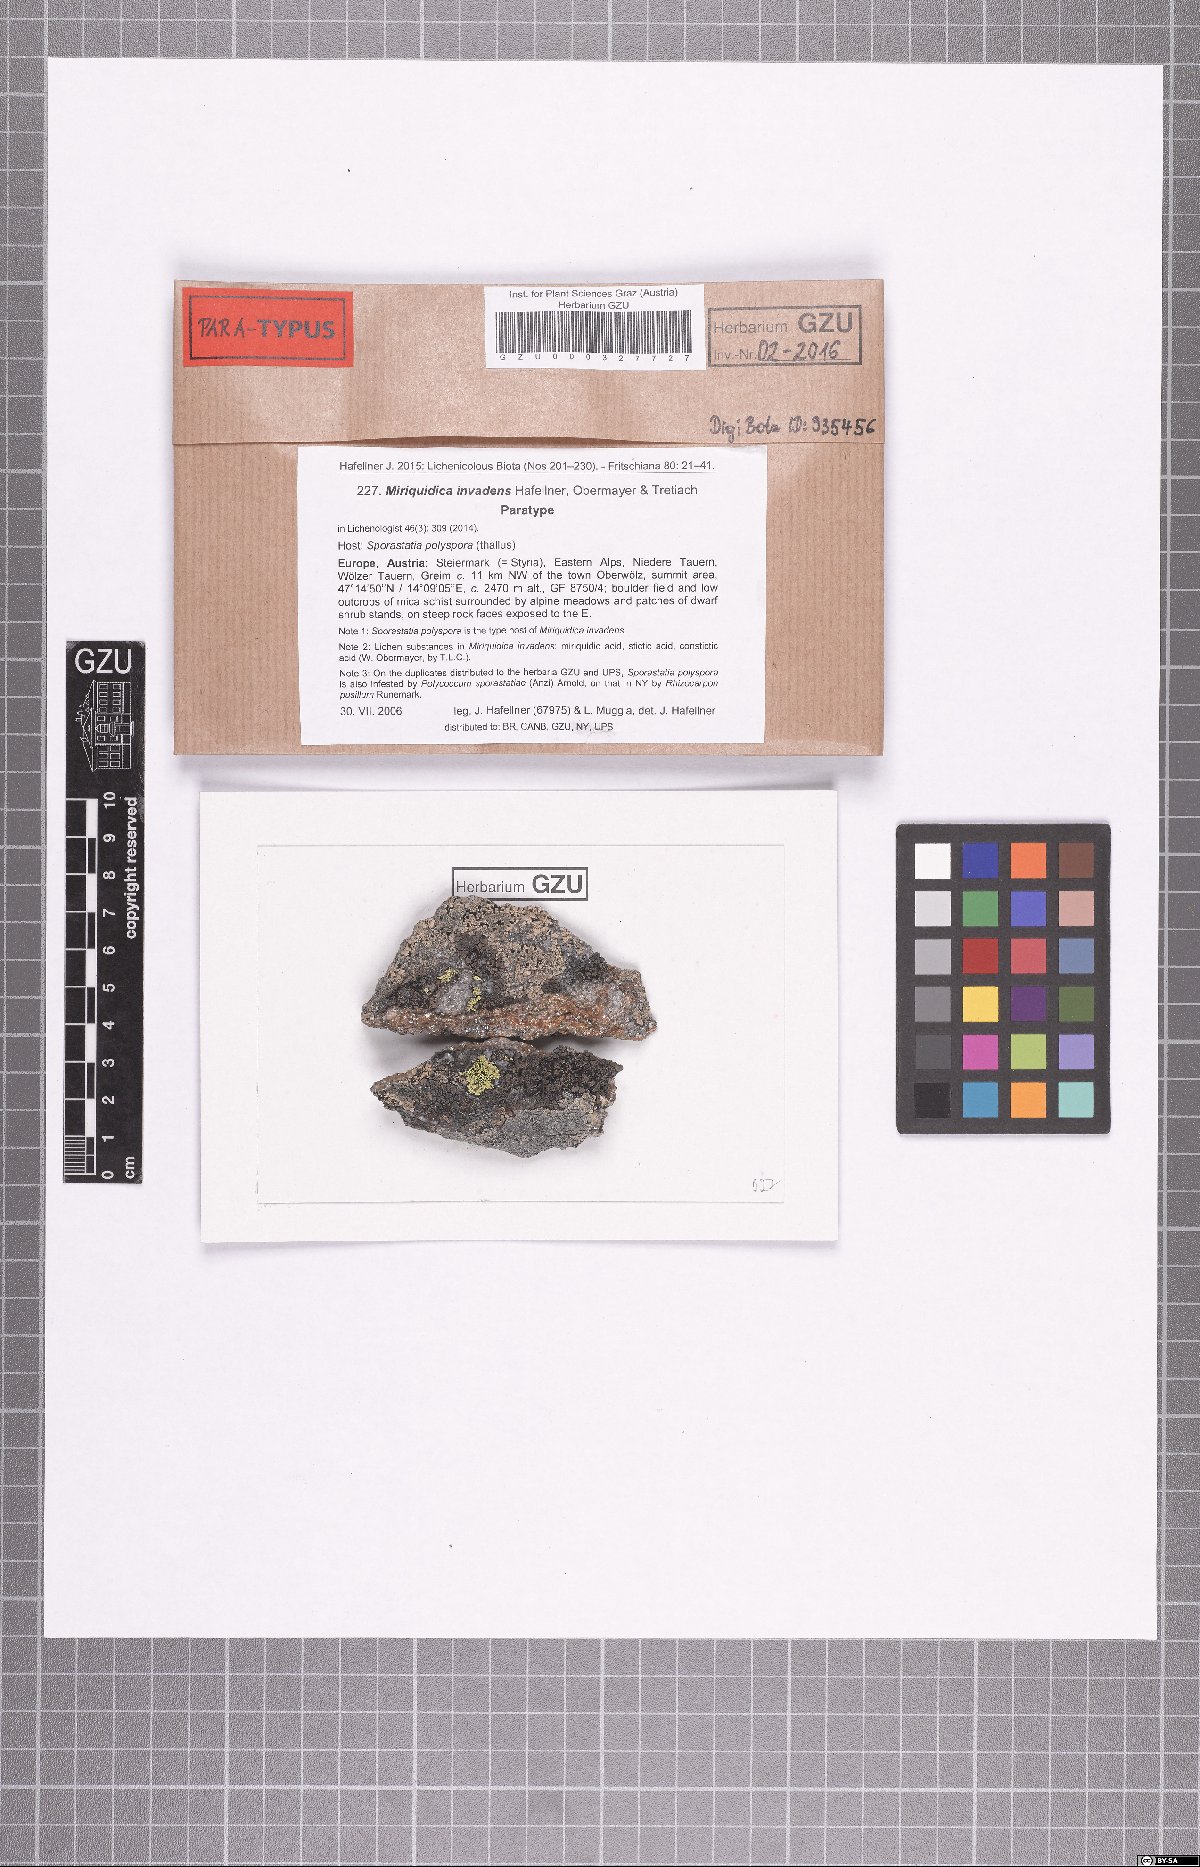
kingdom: Fungi
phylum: Ascomycota
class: Lecanoromycetes
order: Lecanorales
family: Lecanoraceae
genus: Miriquidica
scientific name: Miriquidica invadens
